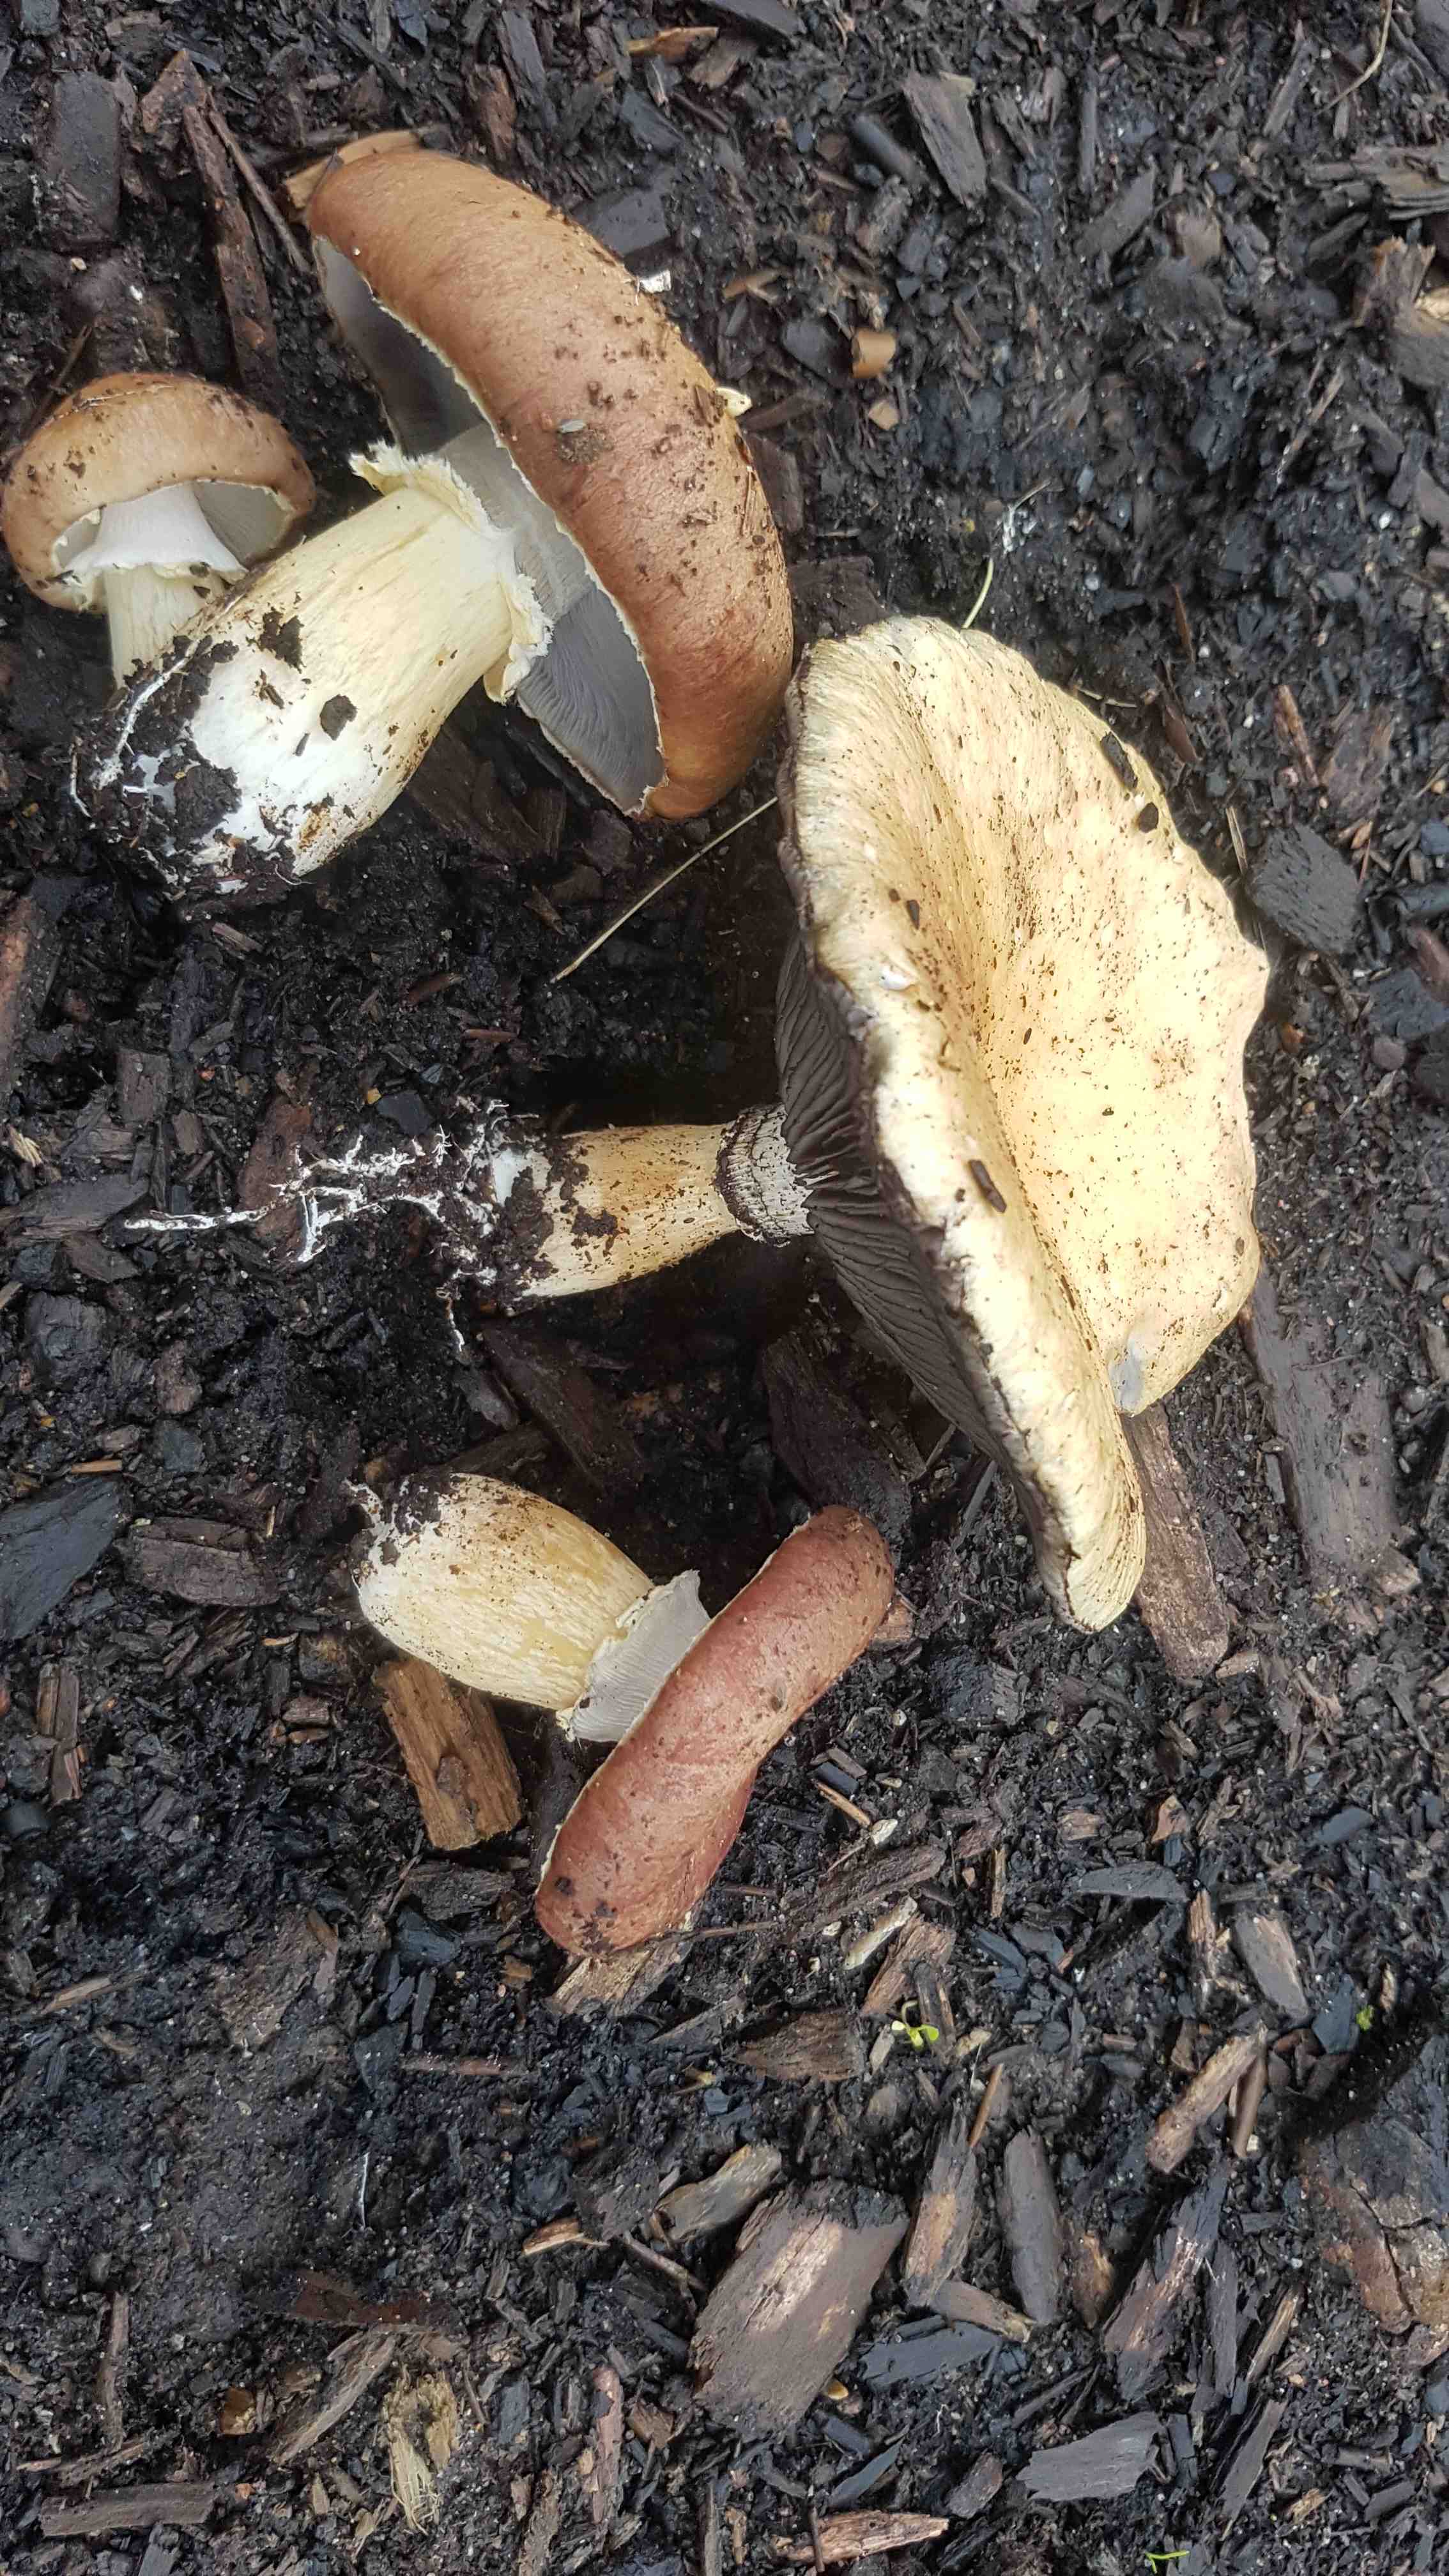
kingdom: Fungi
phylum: Basidiomycota
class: Agaricomycetes
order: Agaricales
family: Strophariaceae
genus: Stropharia
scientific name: Stropharia rugosoannulata
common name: rødbrun bredblad
